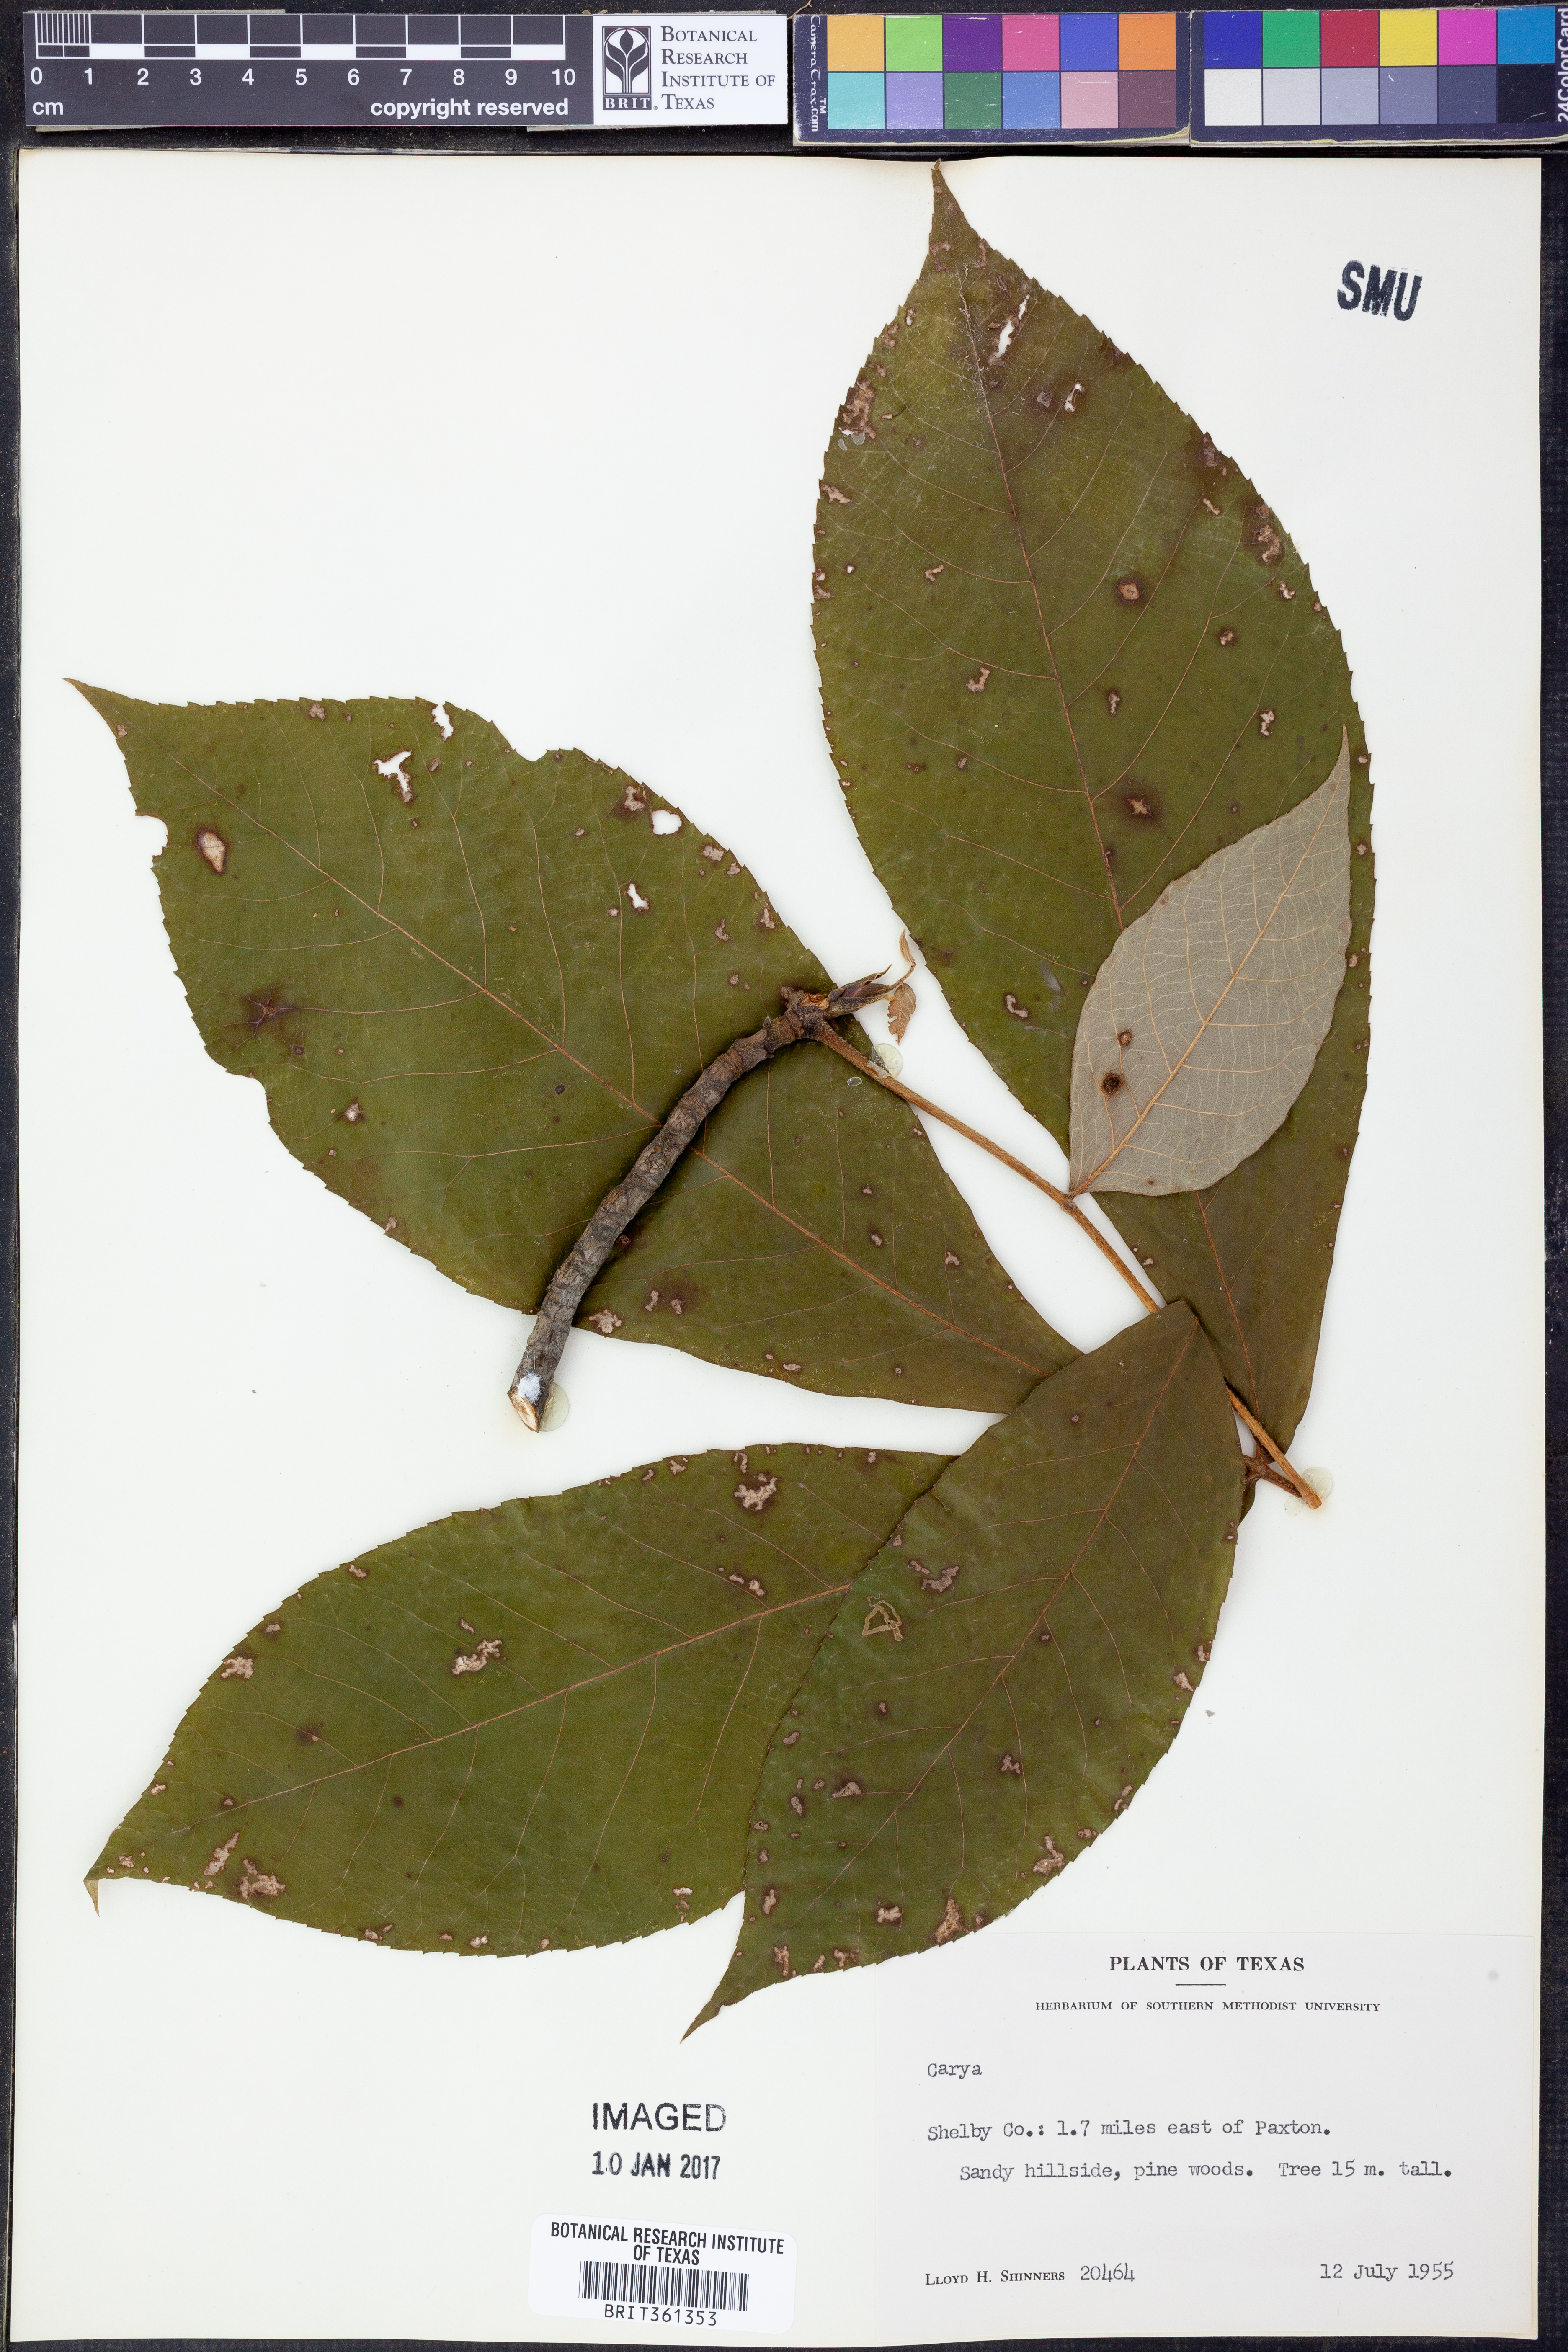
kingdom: Plantae
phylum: Tracheophyta
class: Magnoliopsida
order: Fagales
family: Juglandaceae
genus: Carya
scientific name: Carya
